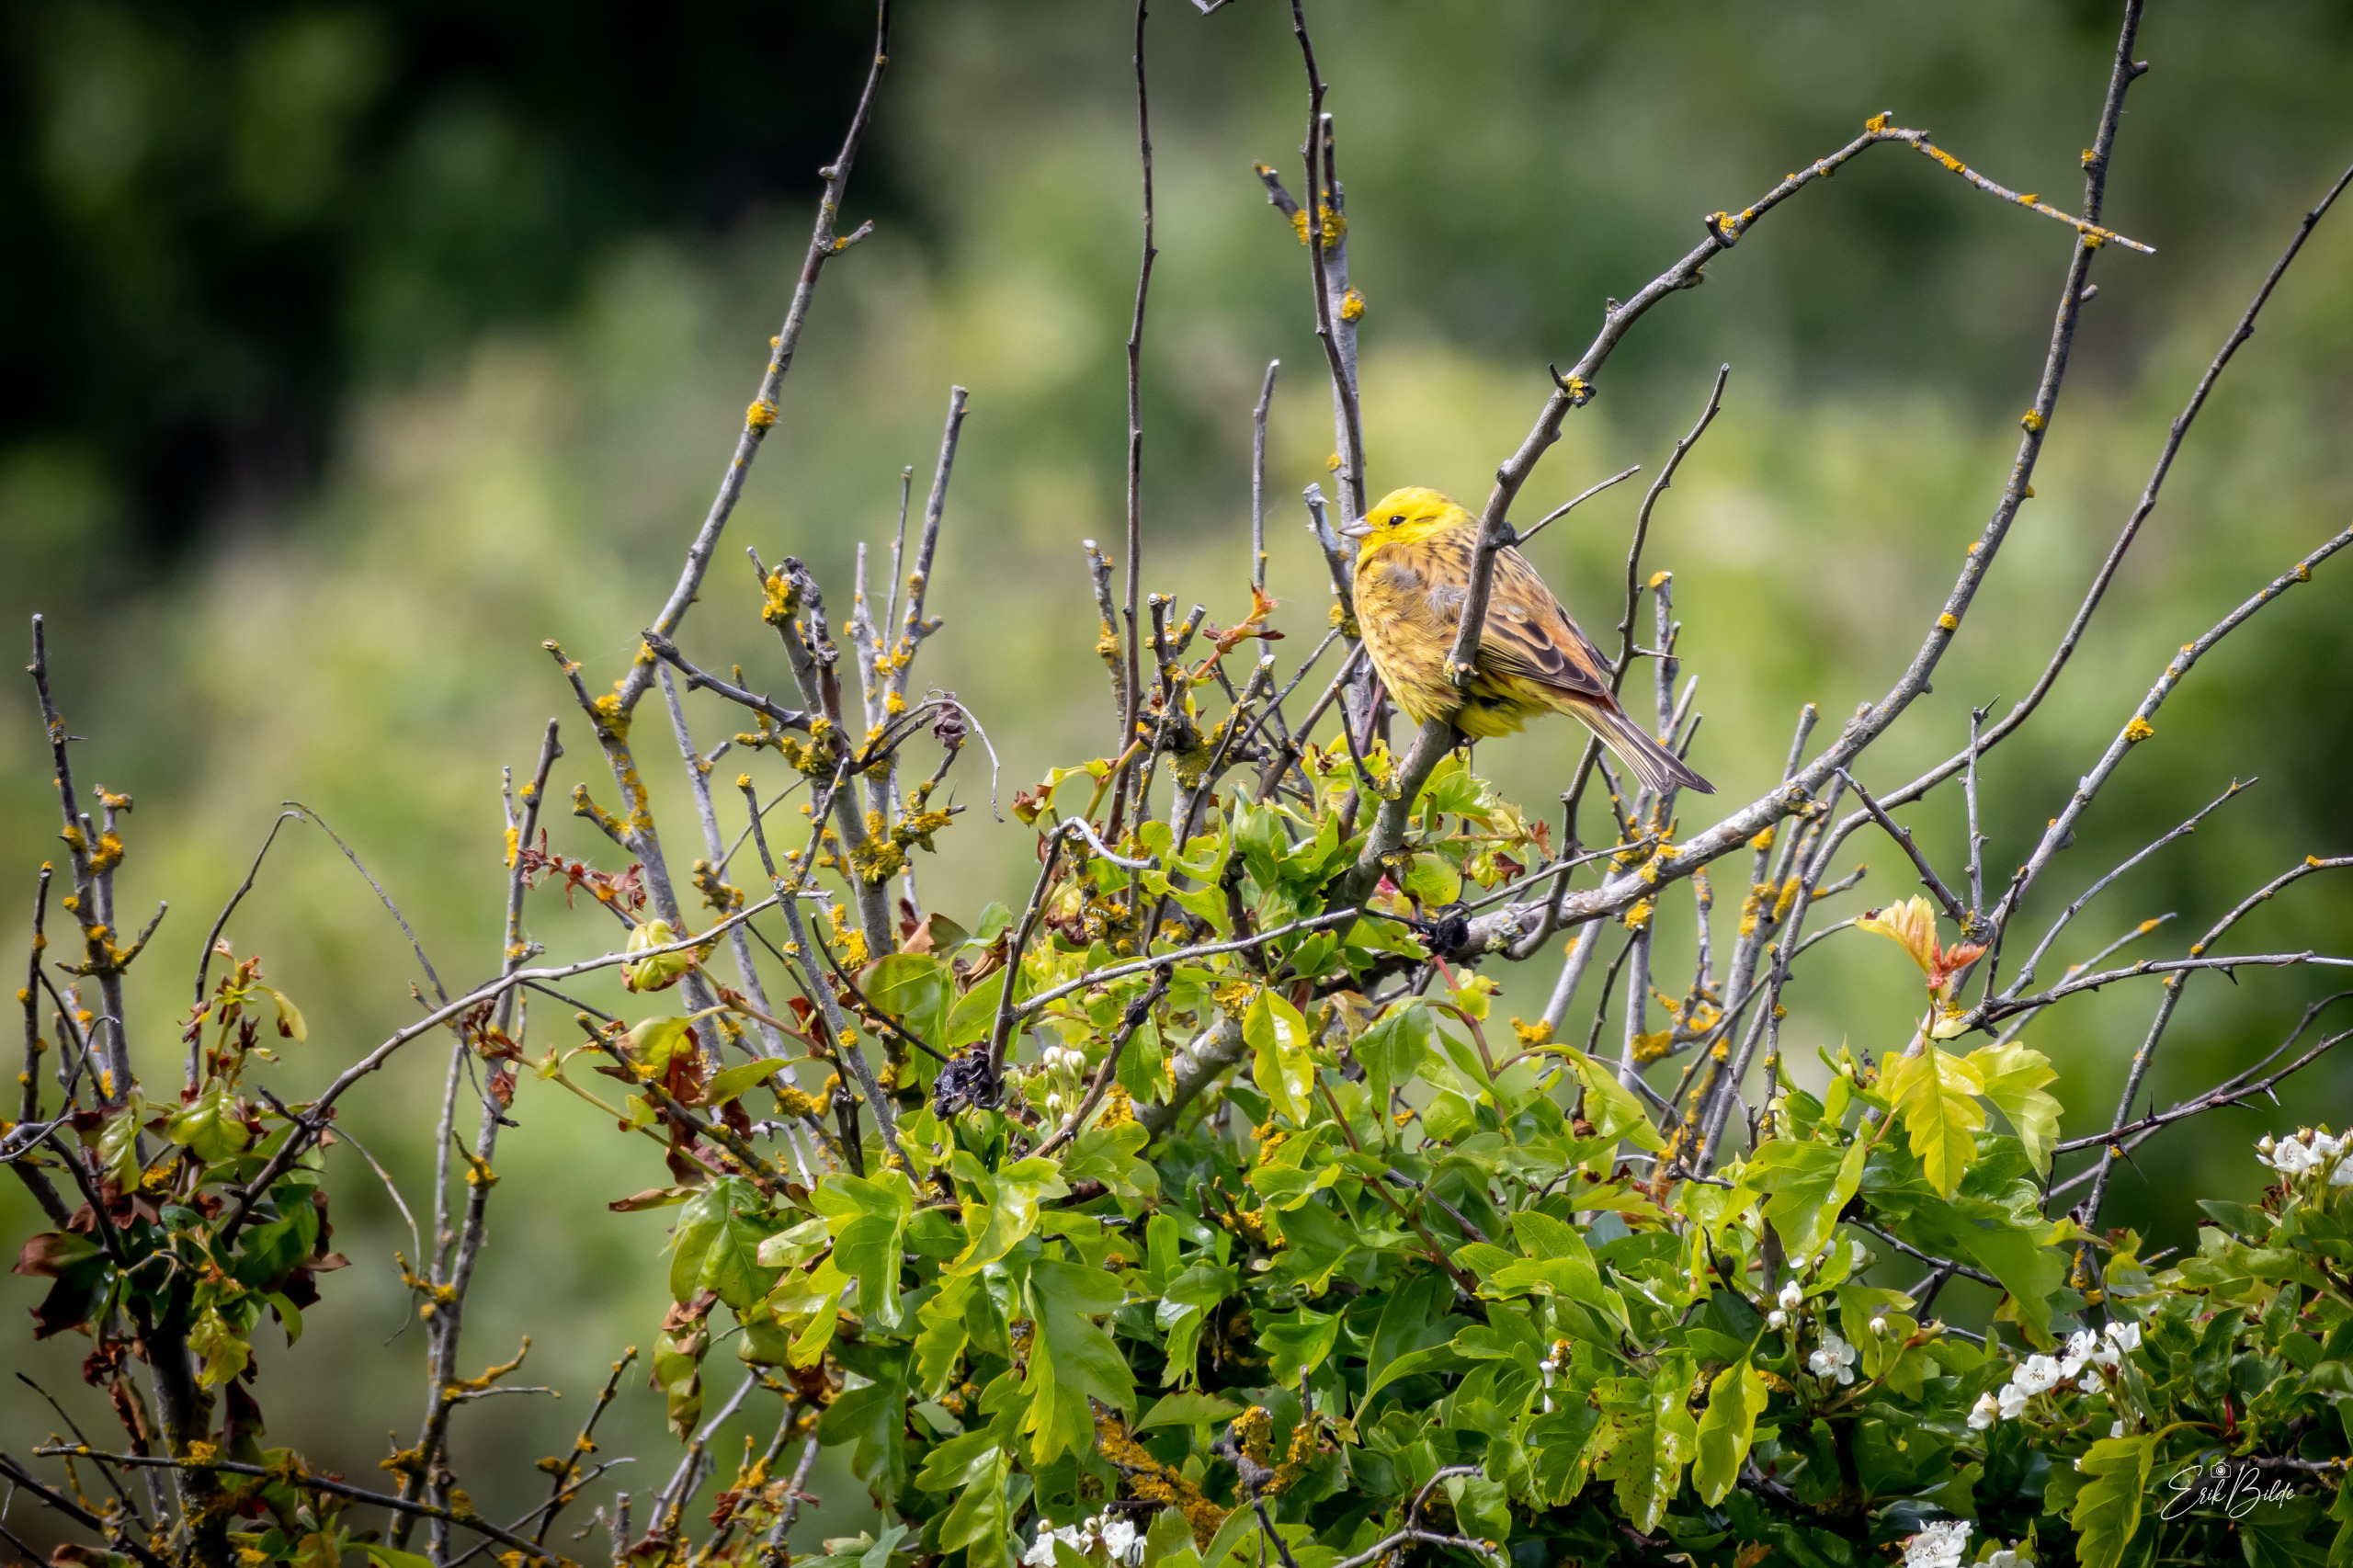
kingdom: Animalia
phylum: Chordata
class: Aves
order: Passeriformes
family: Emberizidae
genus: Emberiza
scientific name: Emberiza citrinella
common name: Gulspurv
